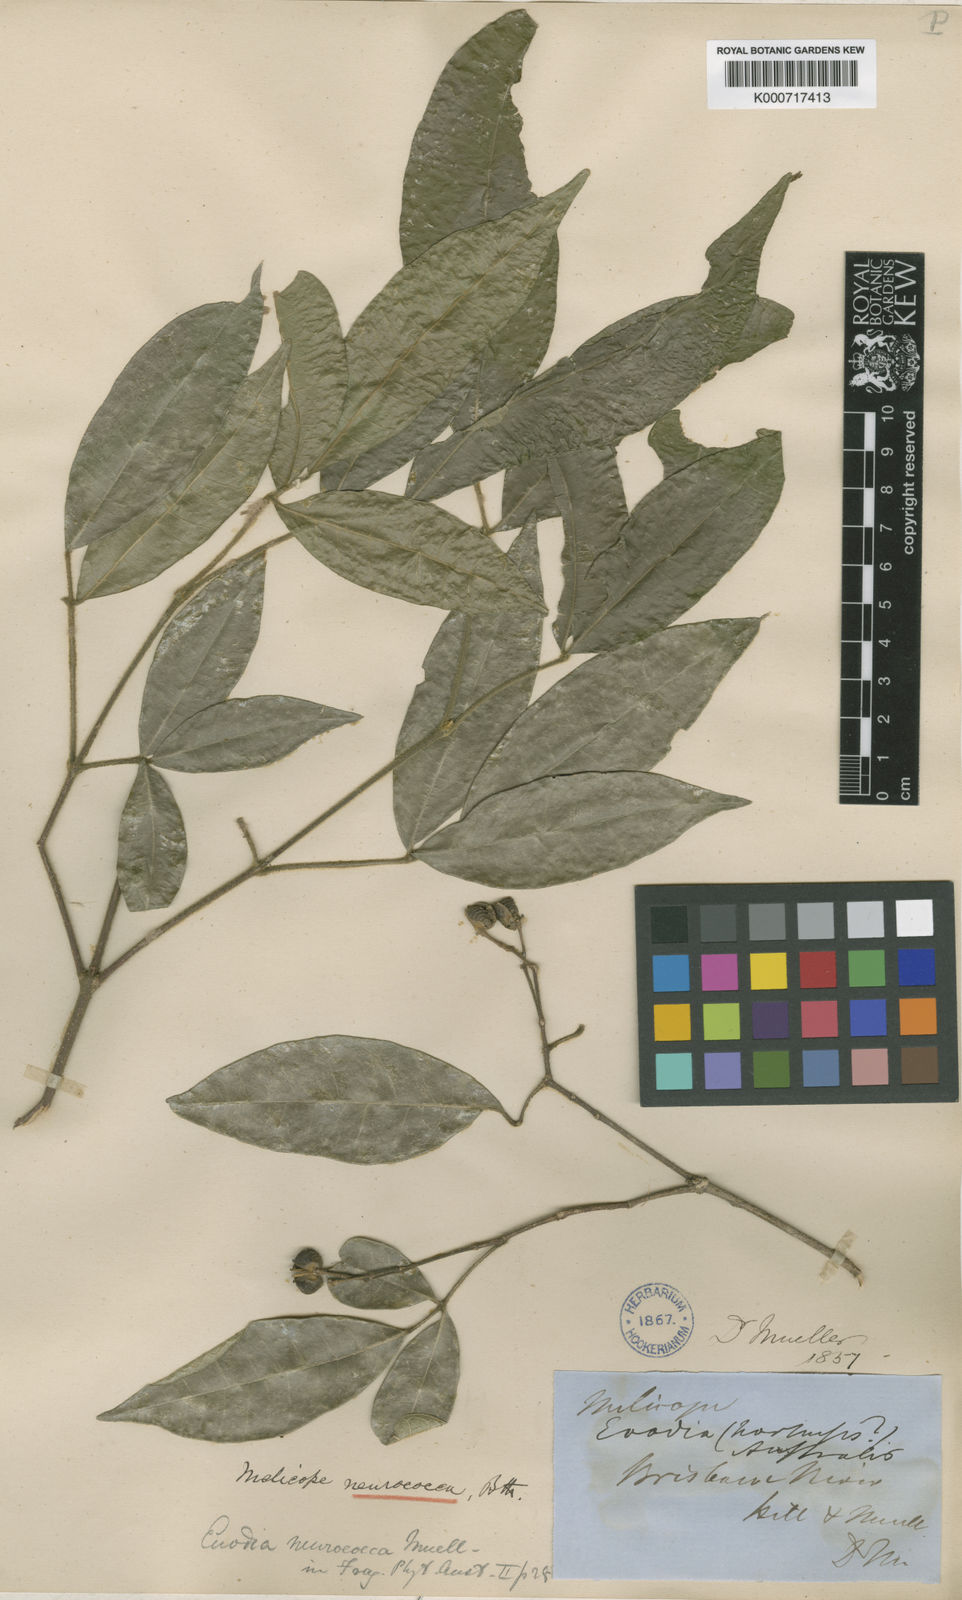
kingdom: Plantae
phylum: Tracheophyta
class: Magnoliopsida
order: Sapindales
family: Rutaceae
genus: Bouchardatia
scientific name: Bouchardatia neurococca
